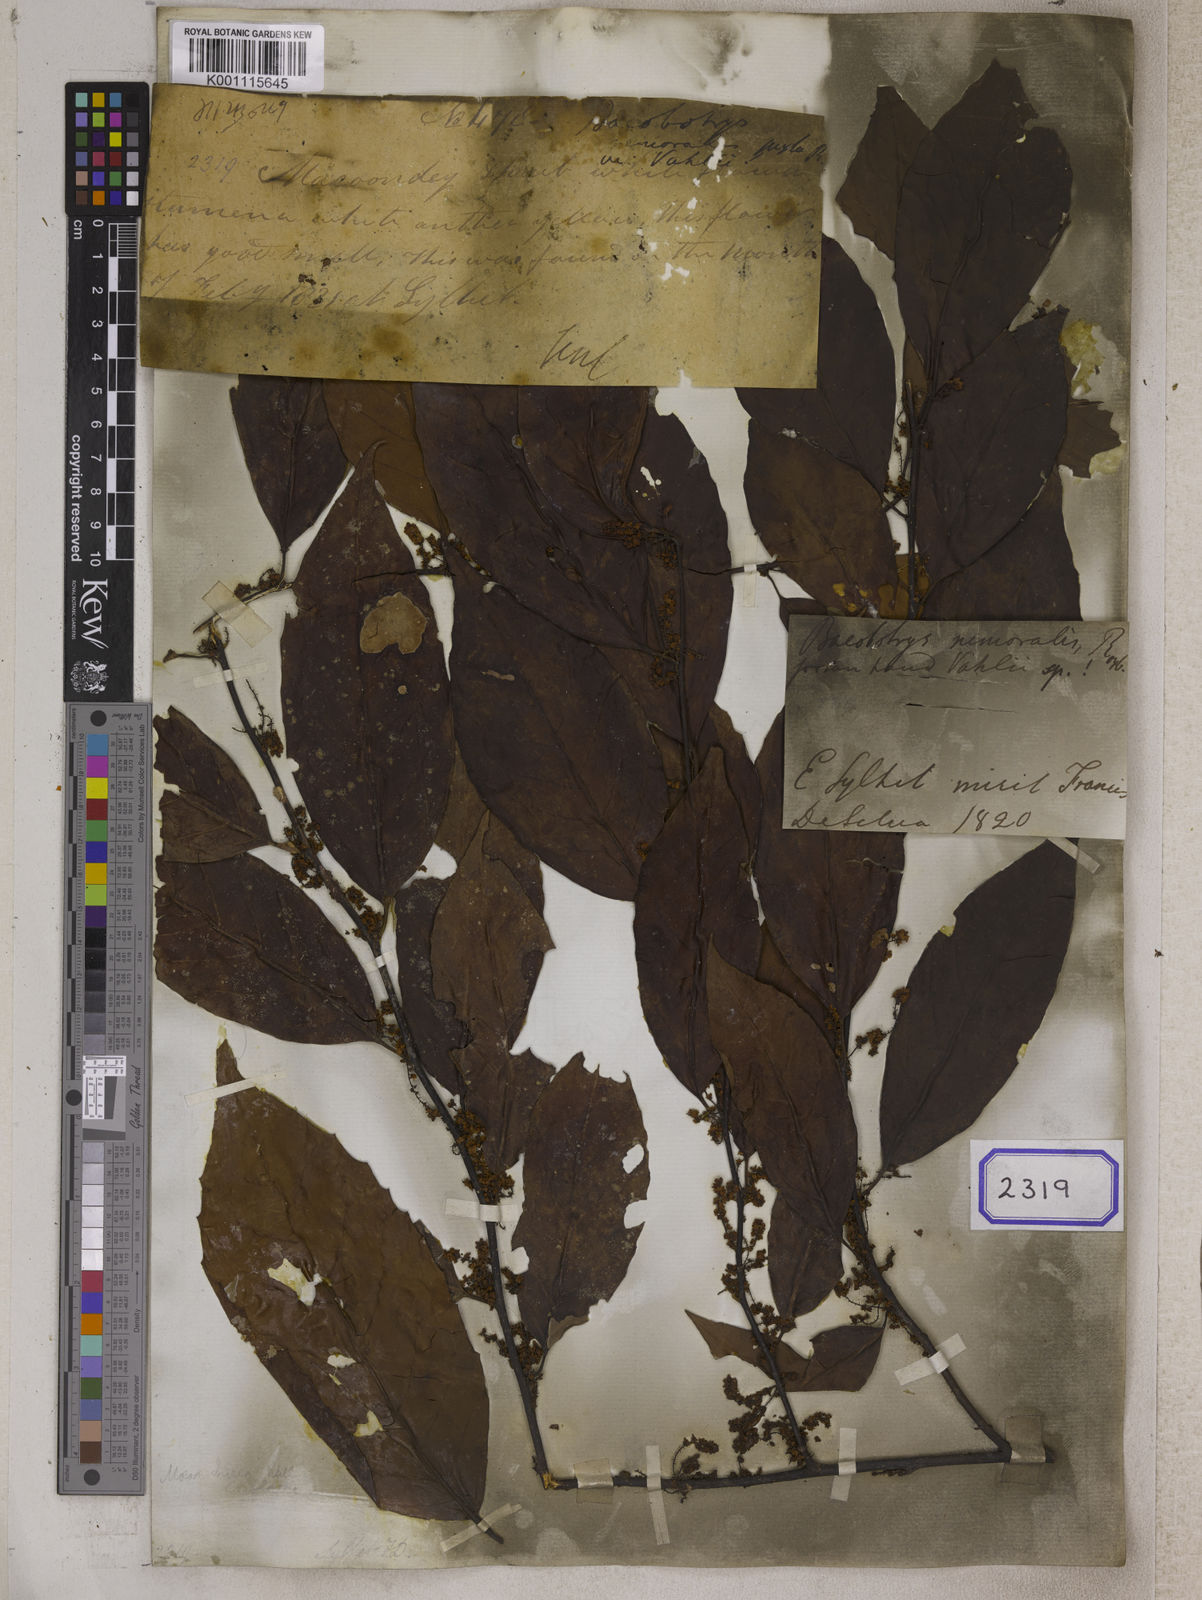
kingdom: Plantae
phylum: Tracheophyta
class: Magnoliopsida
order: Ericales
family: Primulaceae
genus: Maesa
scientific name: Maesa nemoralis
